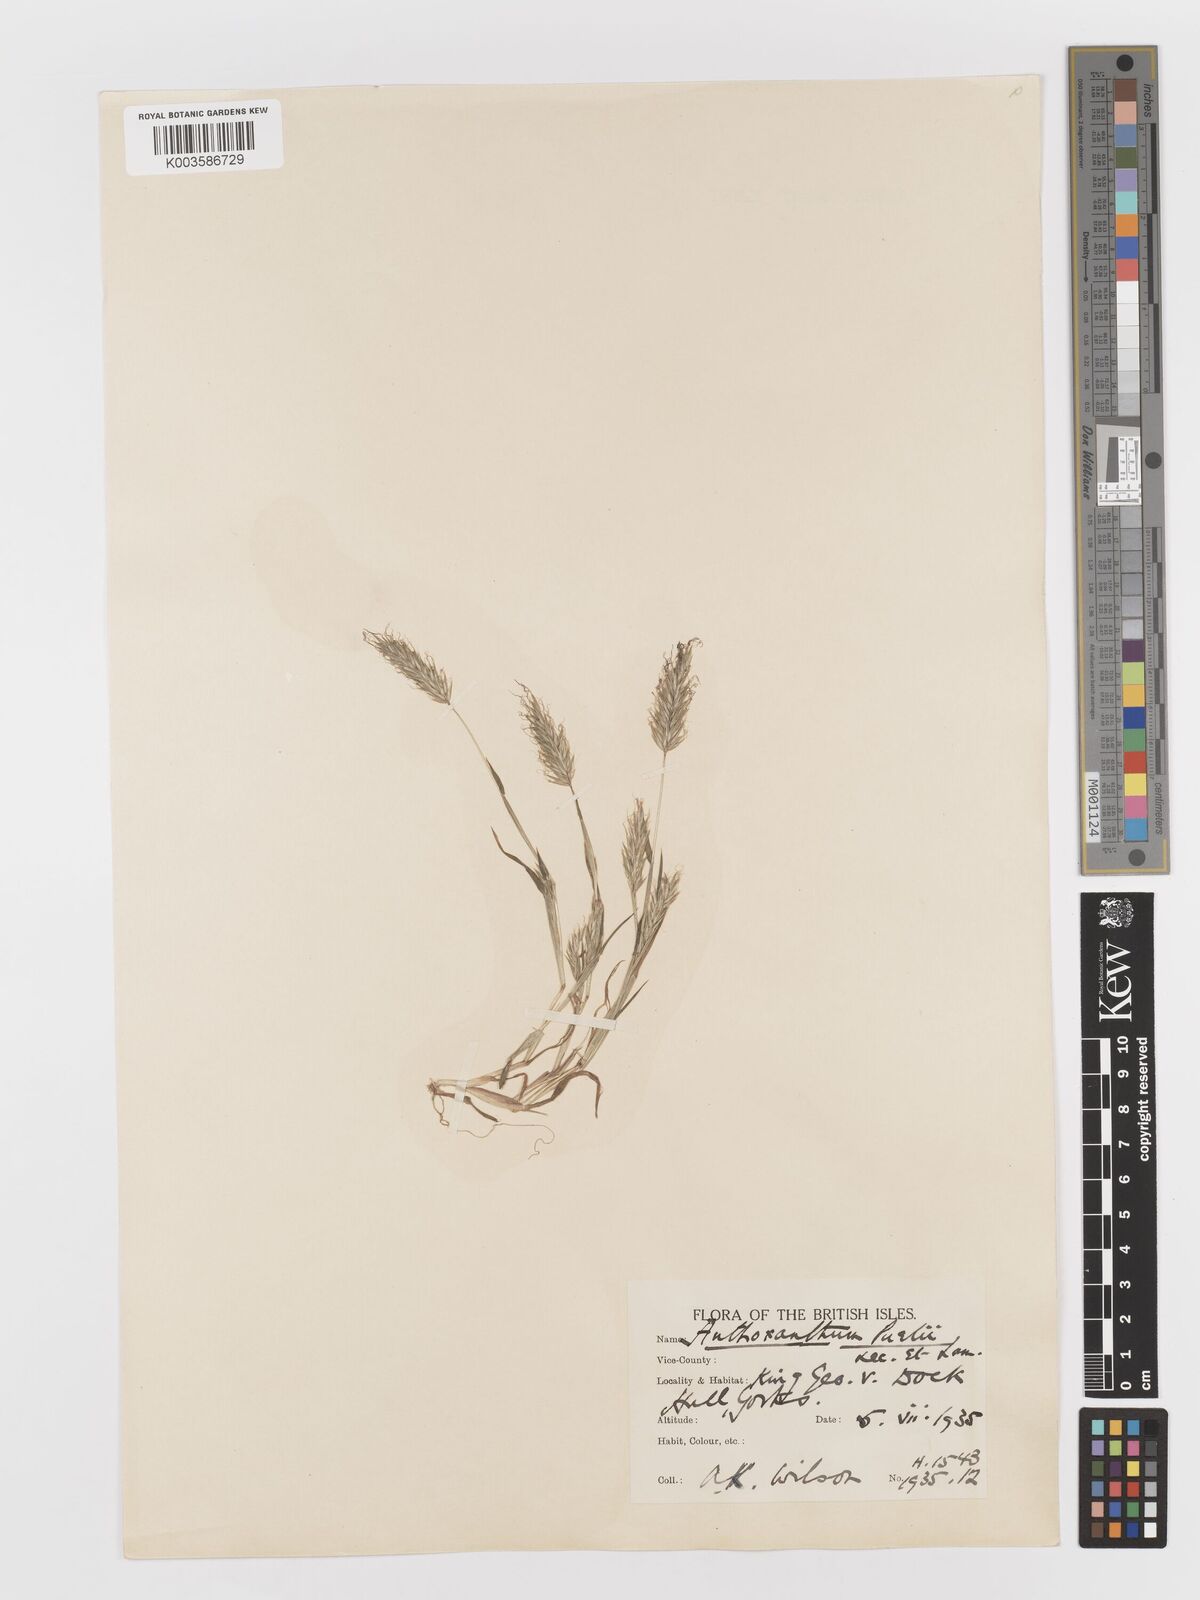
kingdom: Plantae
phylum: Tracheophyta
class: Liliopsida
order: Poales
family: Poaceae
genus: Anthoxanthum
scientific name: Anthoxanthum aristatum
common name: Annual vernal-grass
